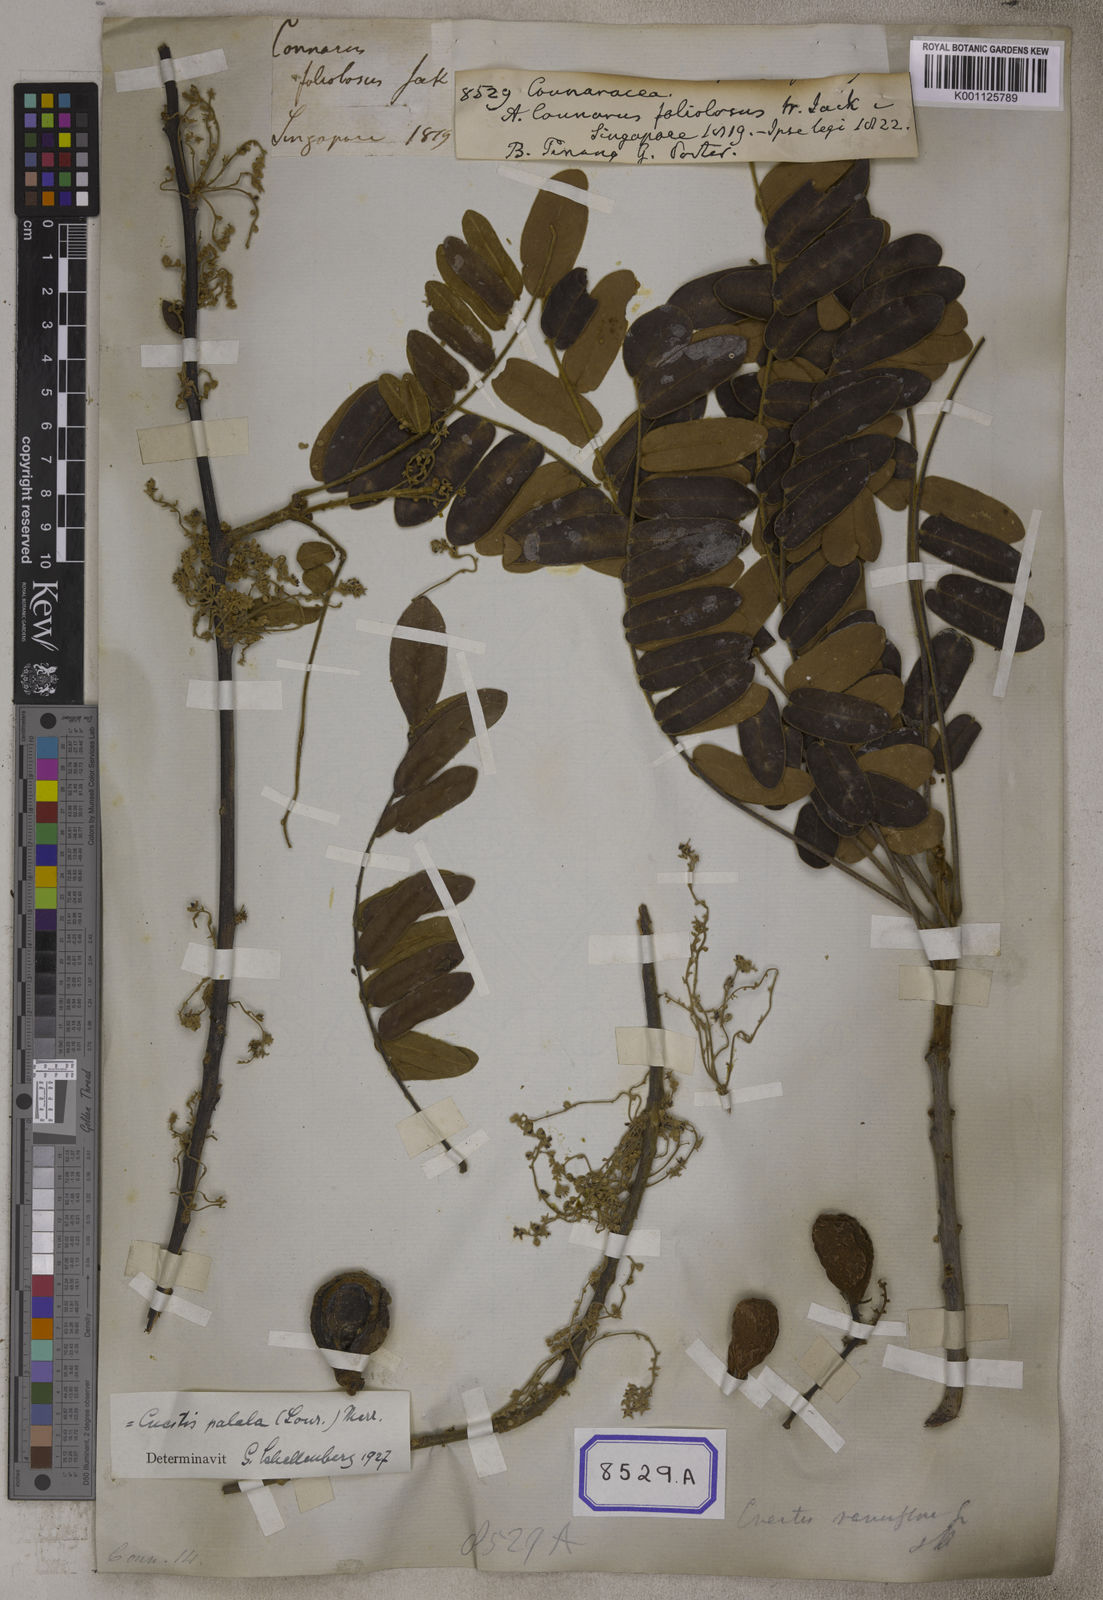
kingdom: Plantae
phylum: Tracheophyta
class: Magnoliopsida
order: Oxalidales
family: Connaraceae
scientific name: Connaraceae
